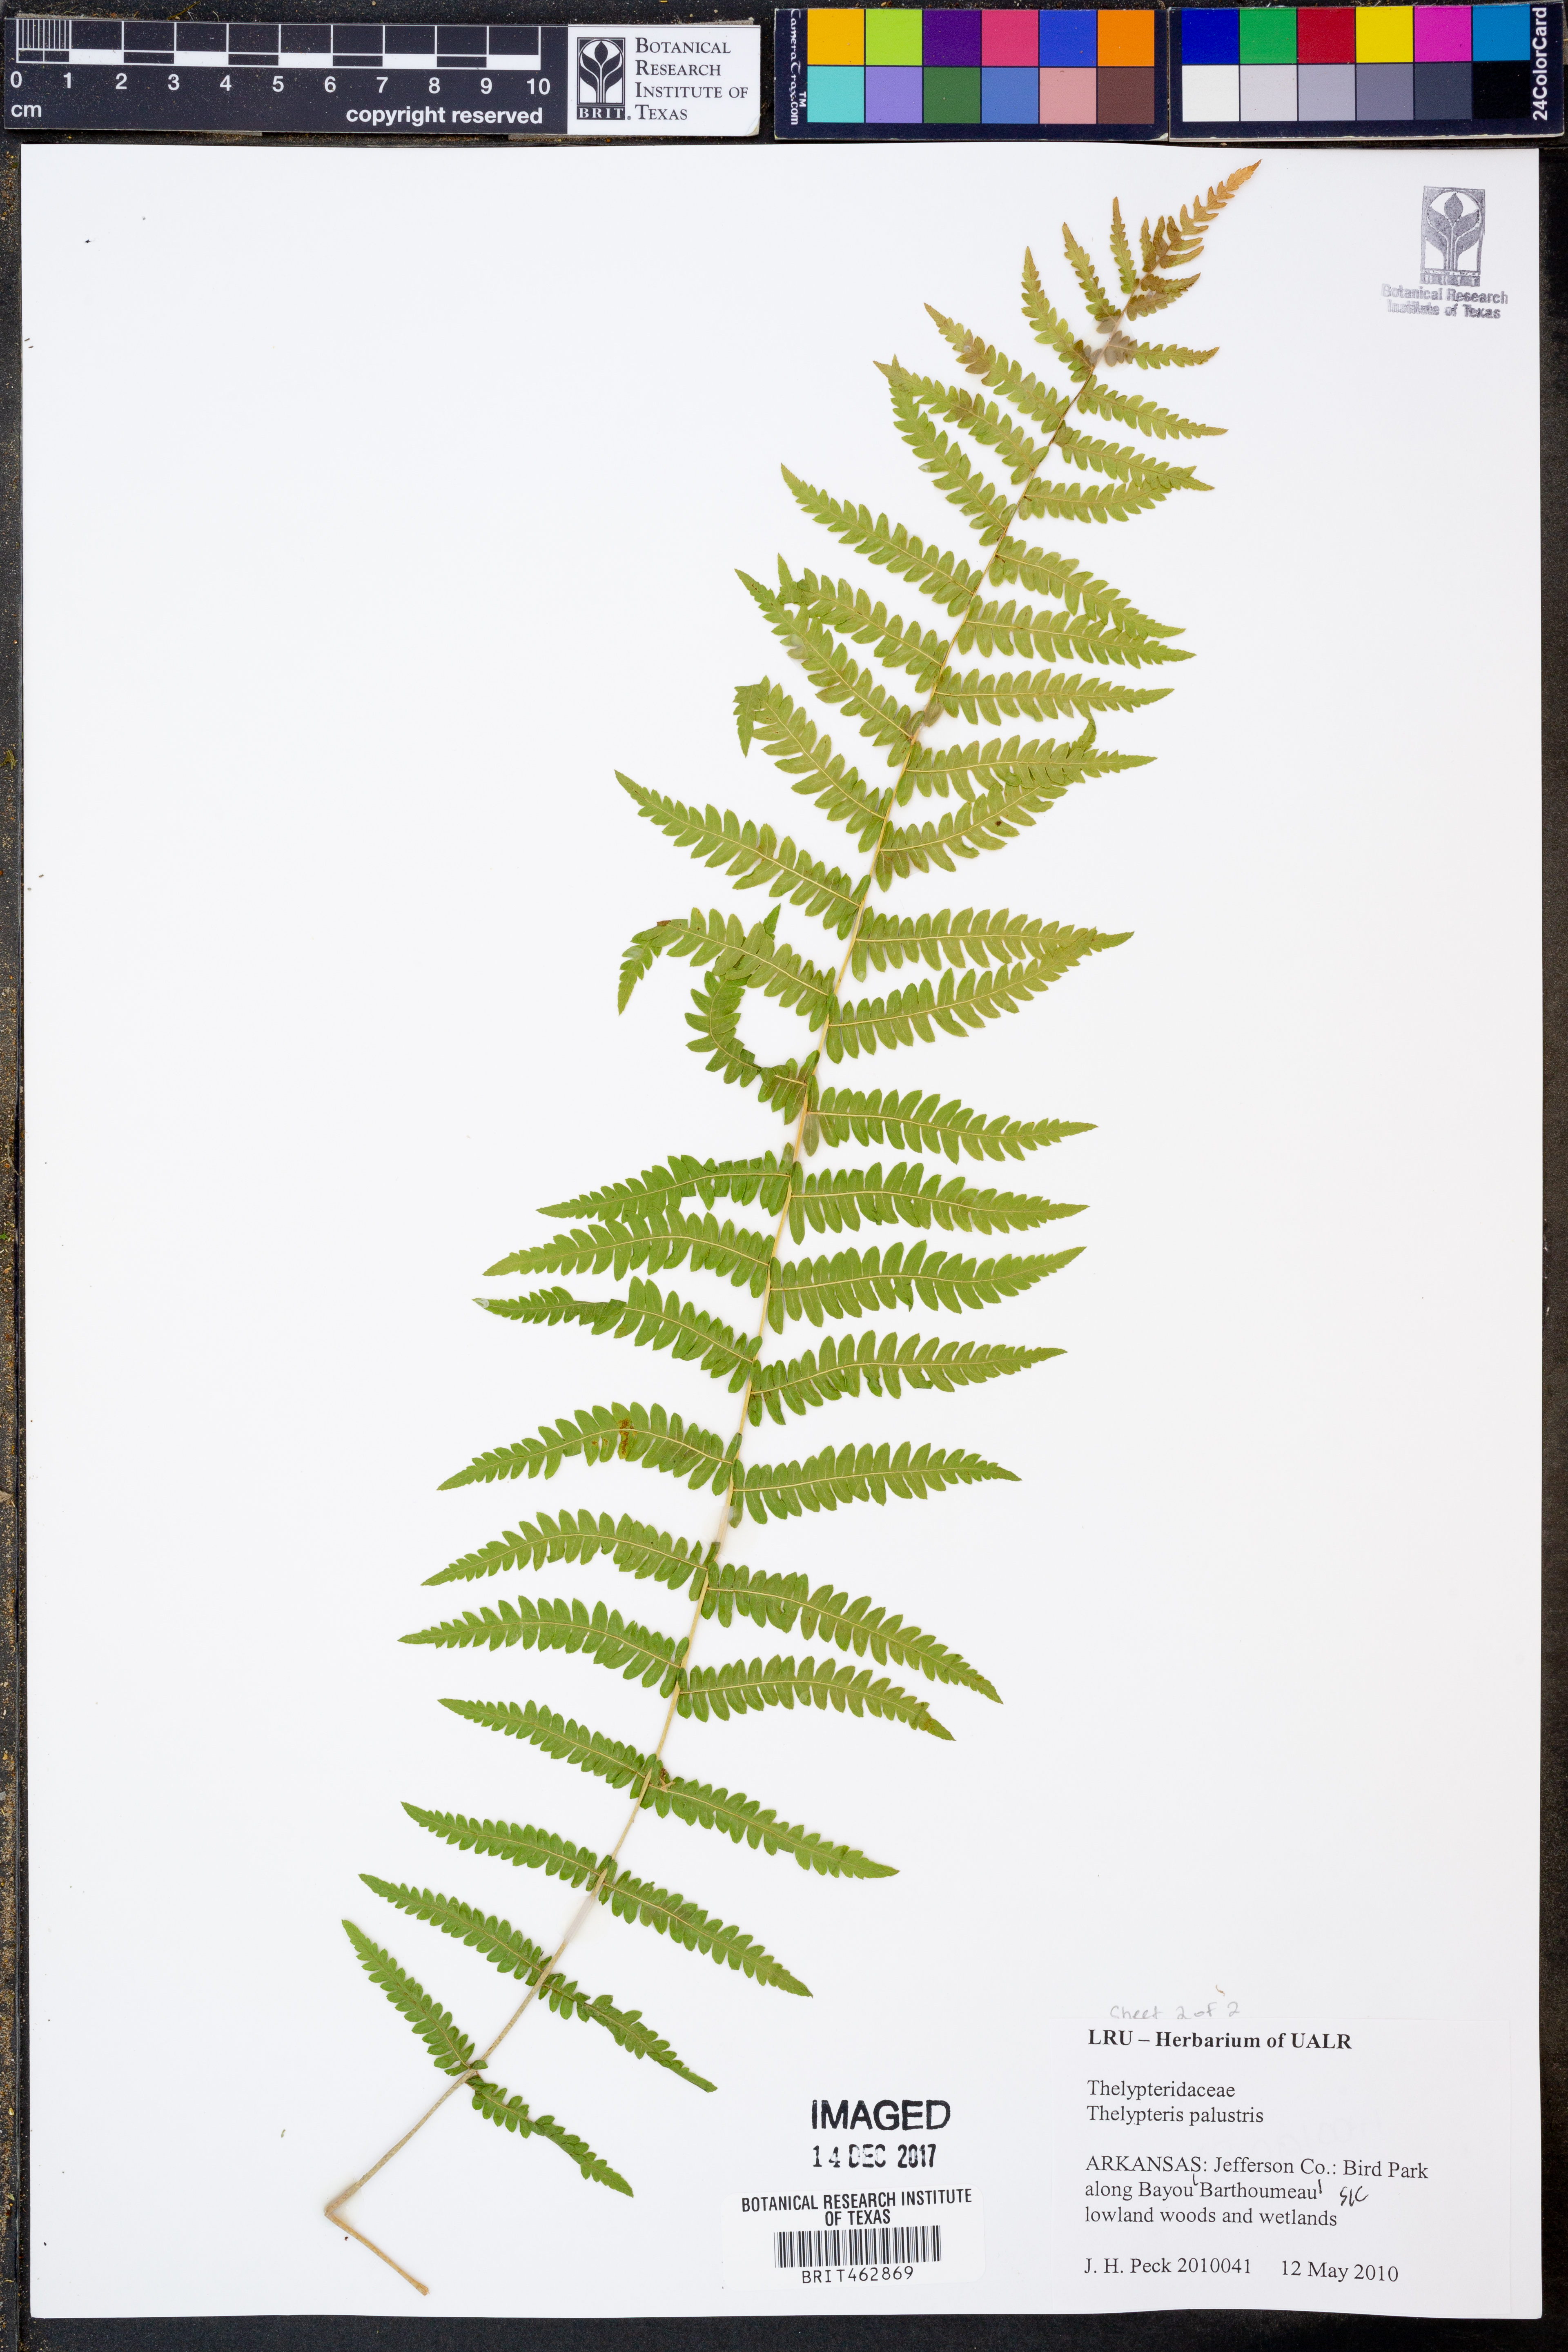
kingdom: Plantae
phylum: Tracheophyta
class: Polypodiopsida
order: Polypodiales
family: Thelypteridaceae
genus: Thelypteris
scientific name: Thelypteris palustris
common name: Marsh fern
